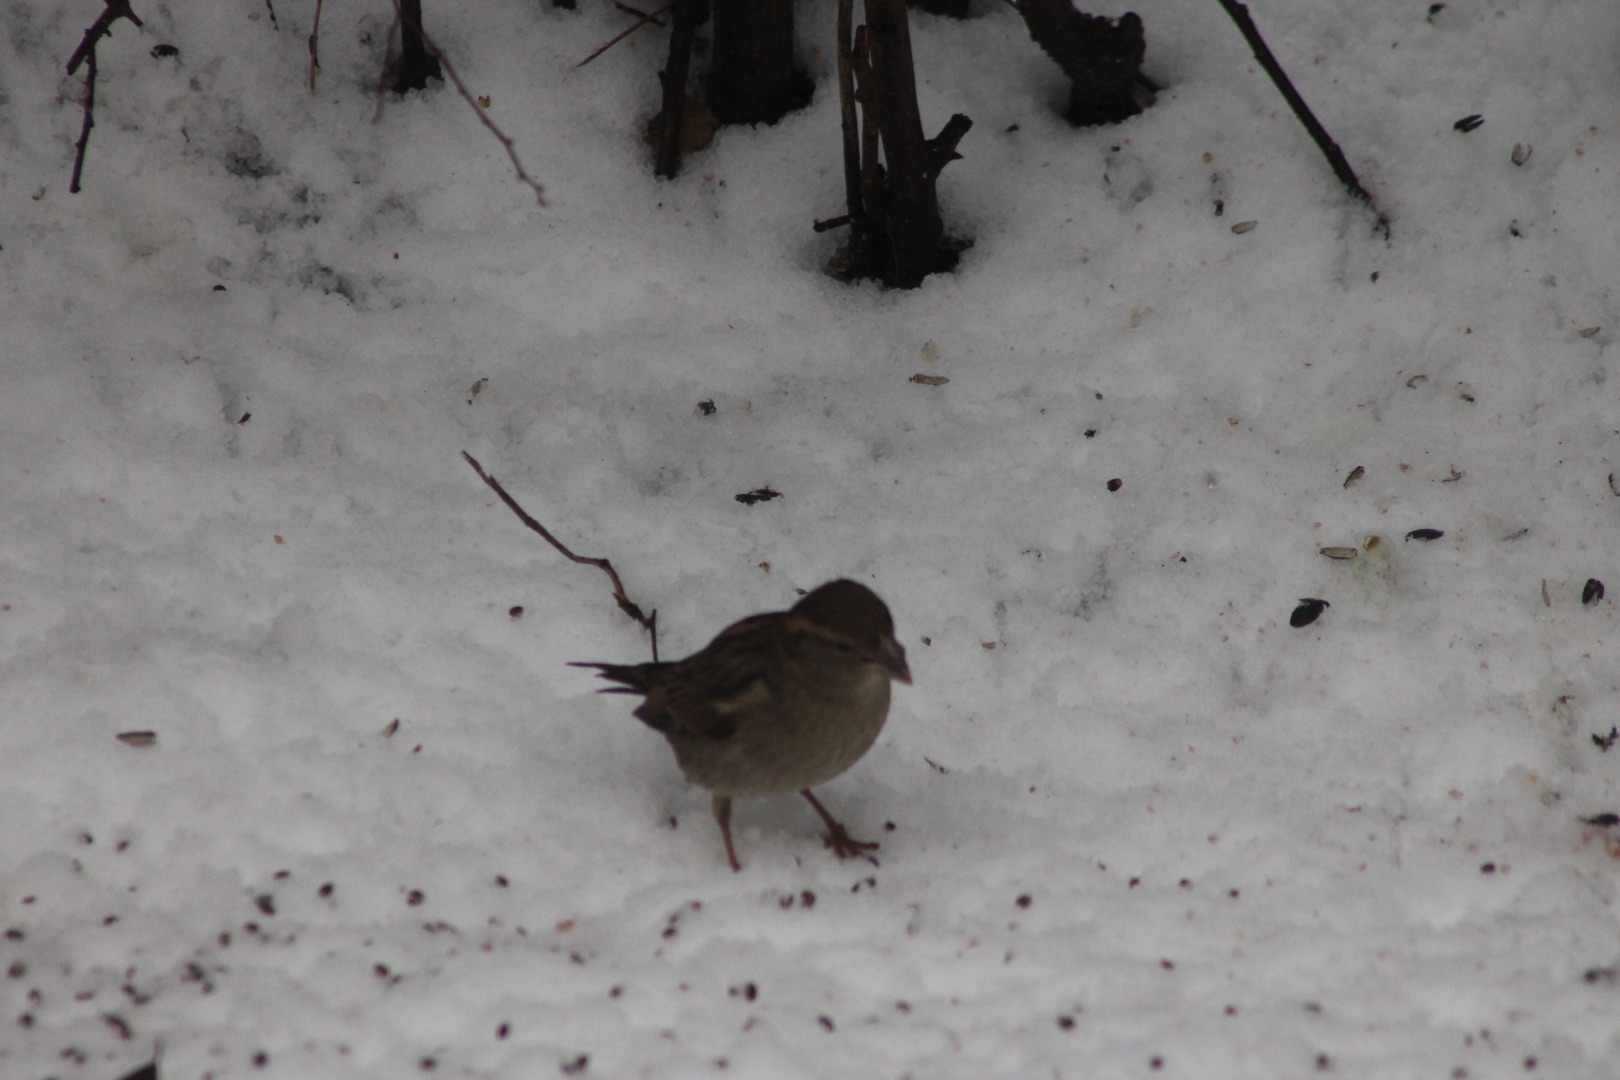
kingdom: Animalia
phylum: Chordata
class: Aves
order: Passeriformes
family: Passeridae
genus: Passer
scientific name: Passer domesticus
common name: Gråspurv
